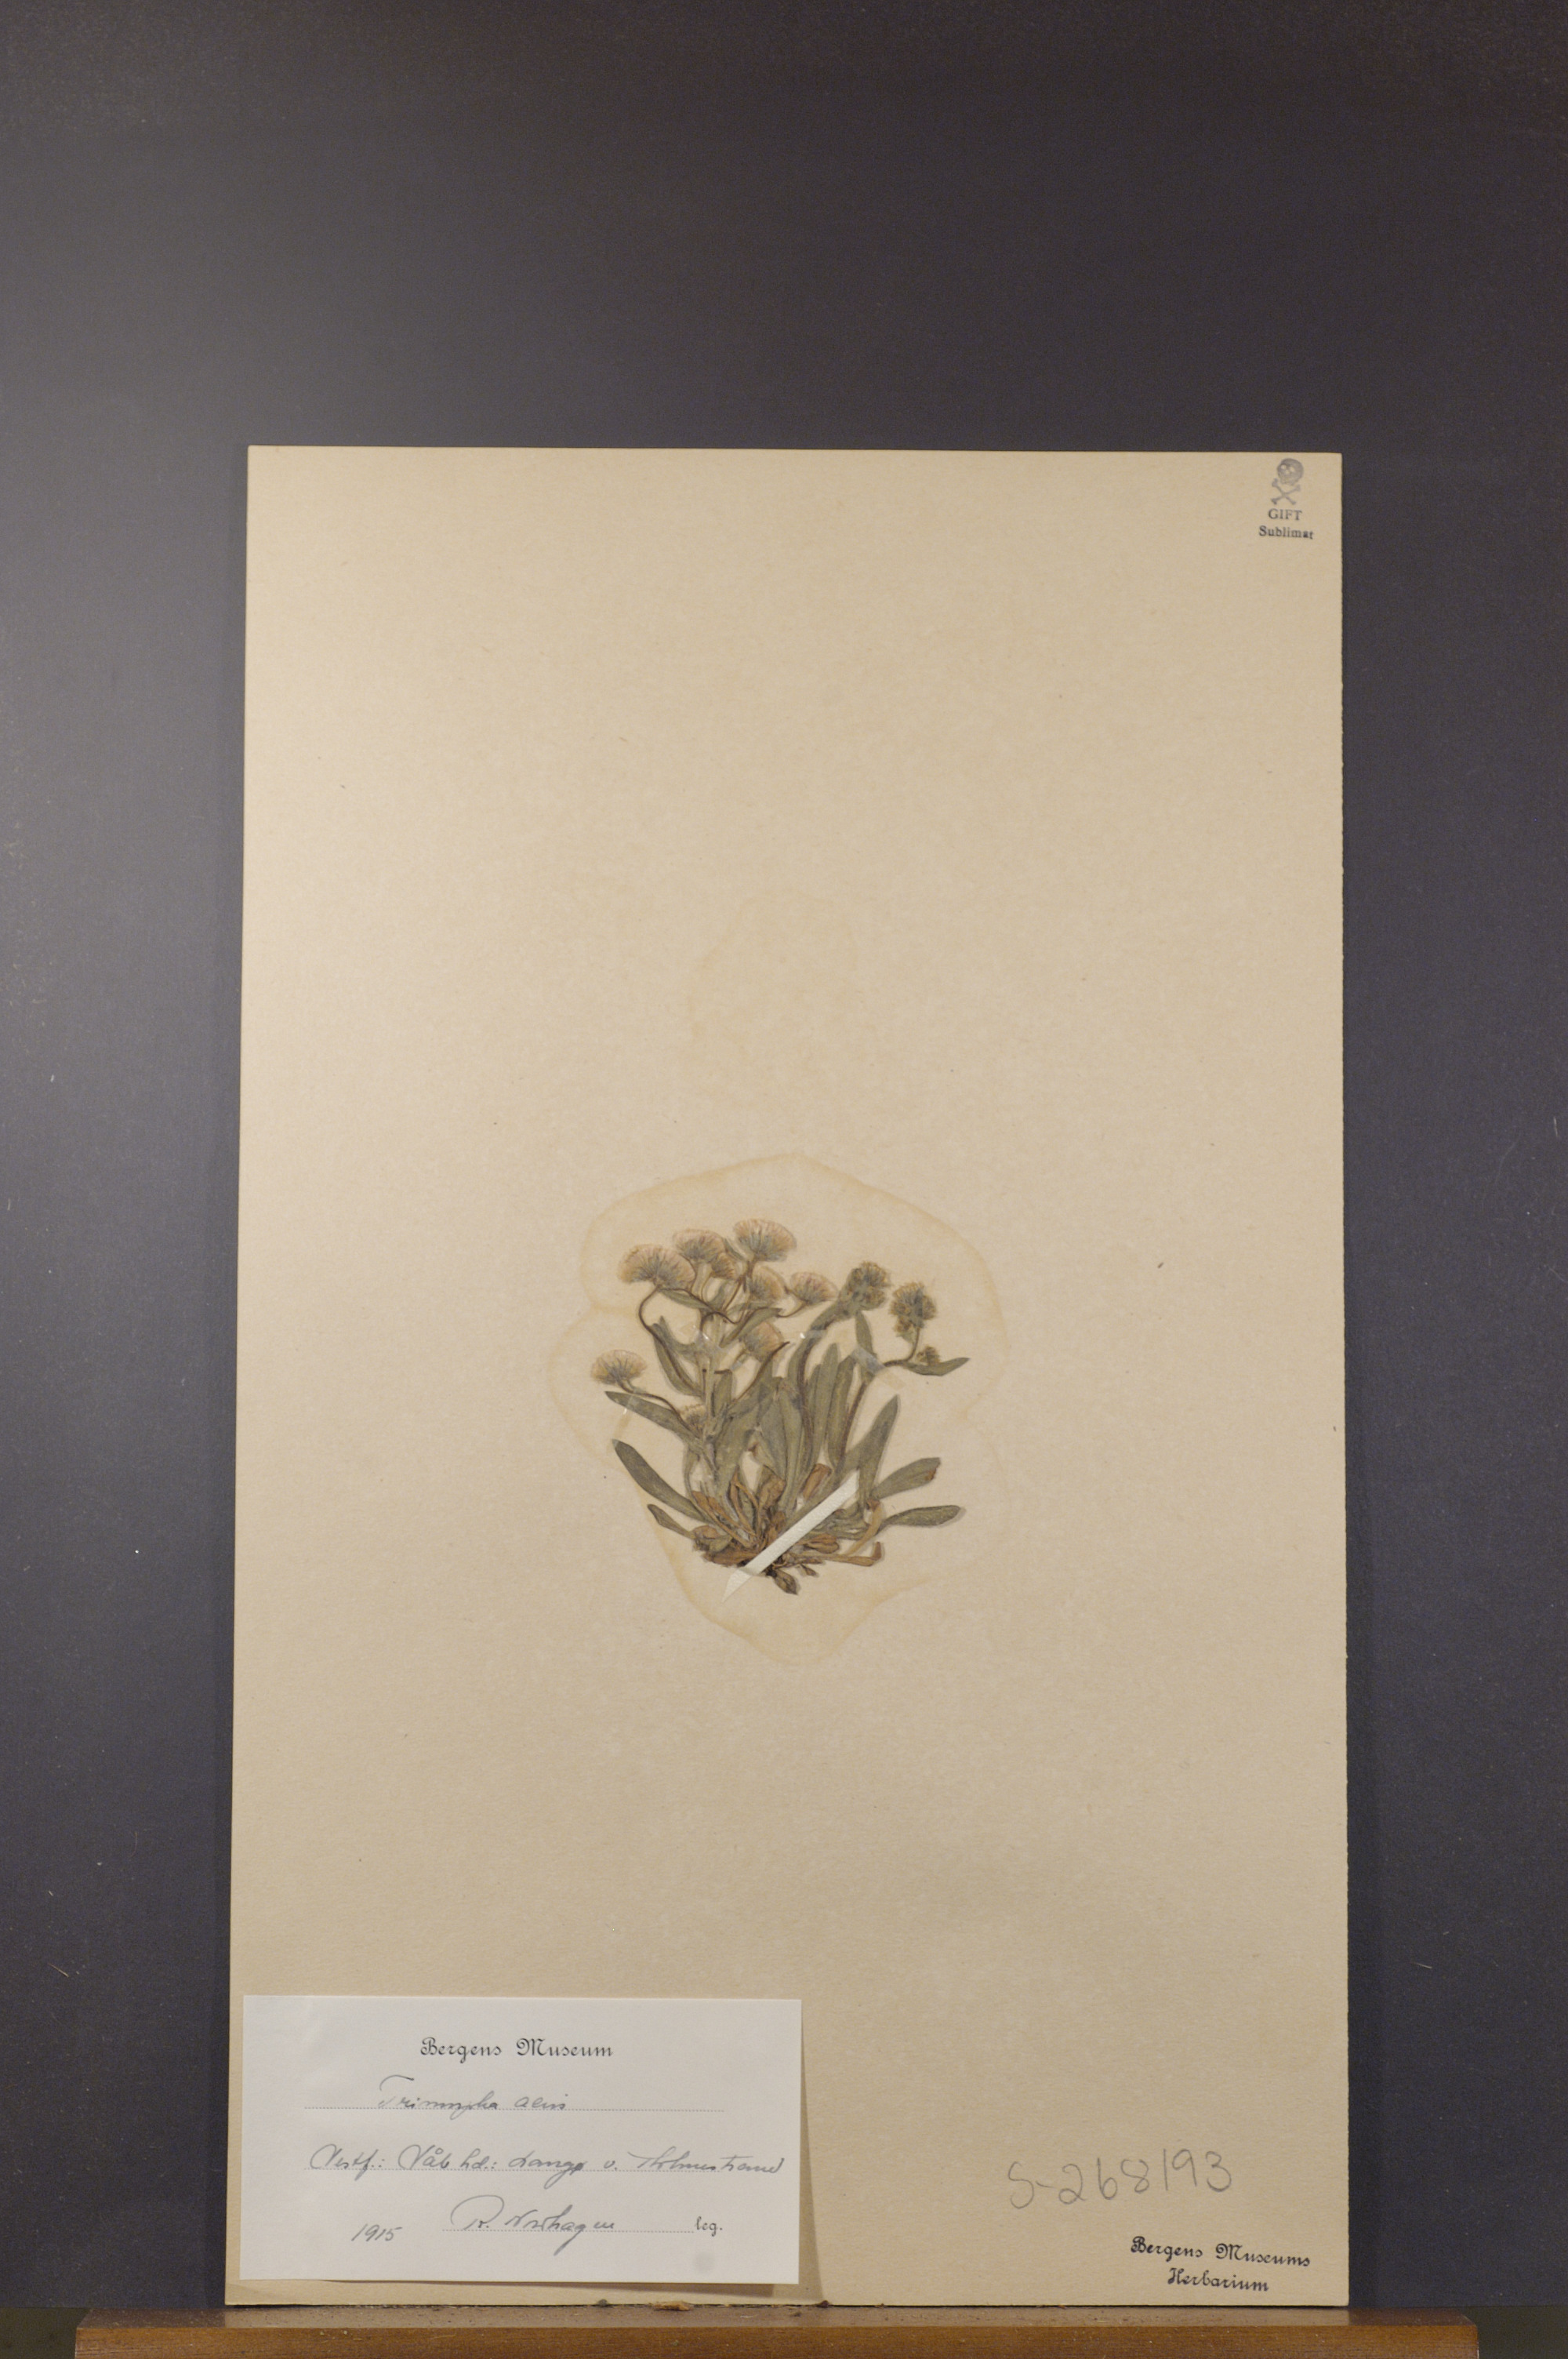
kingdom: Plantae
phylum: Tracheophyta
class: Magnoliopsida
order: Asterales
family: Asteraceae
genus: Erigeron
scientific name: Erigeron acris
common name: Blue fleabane
